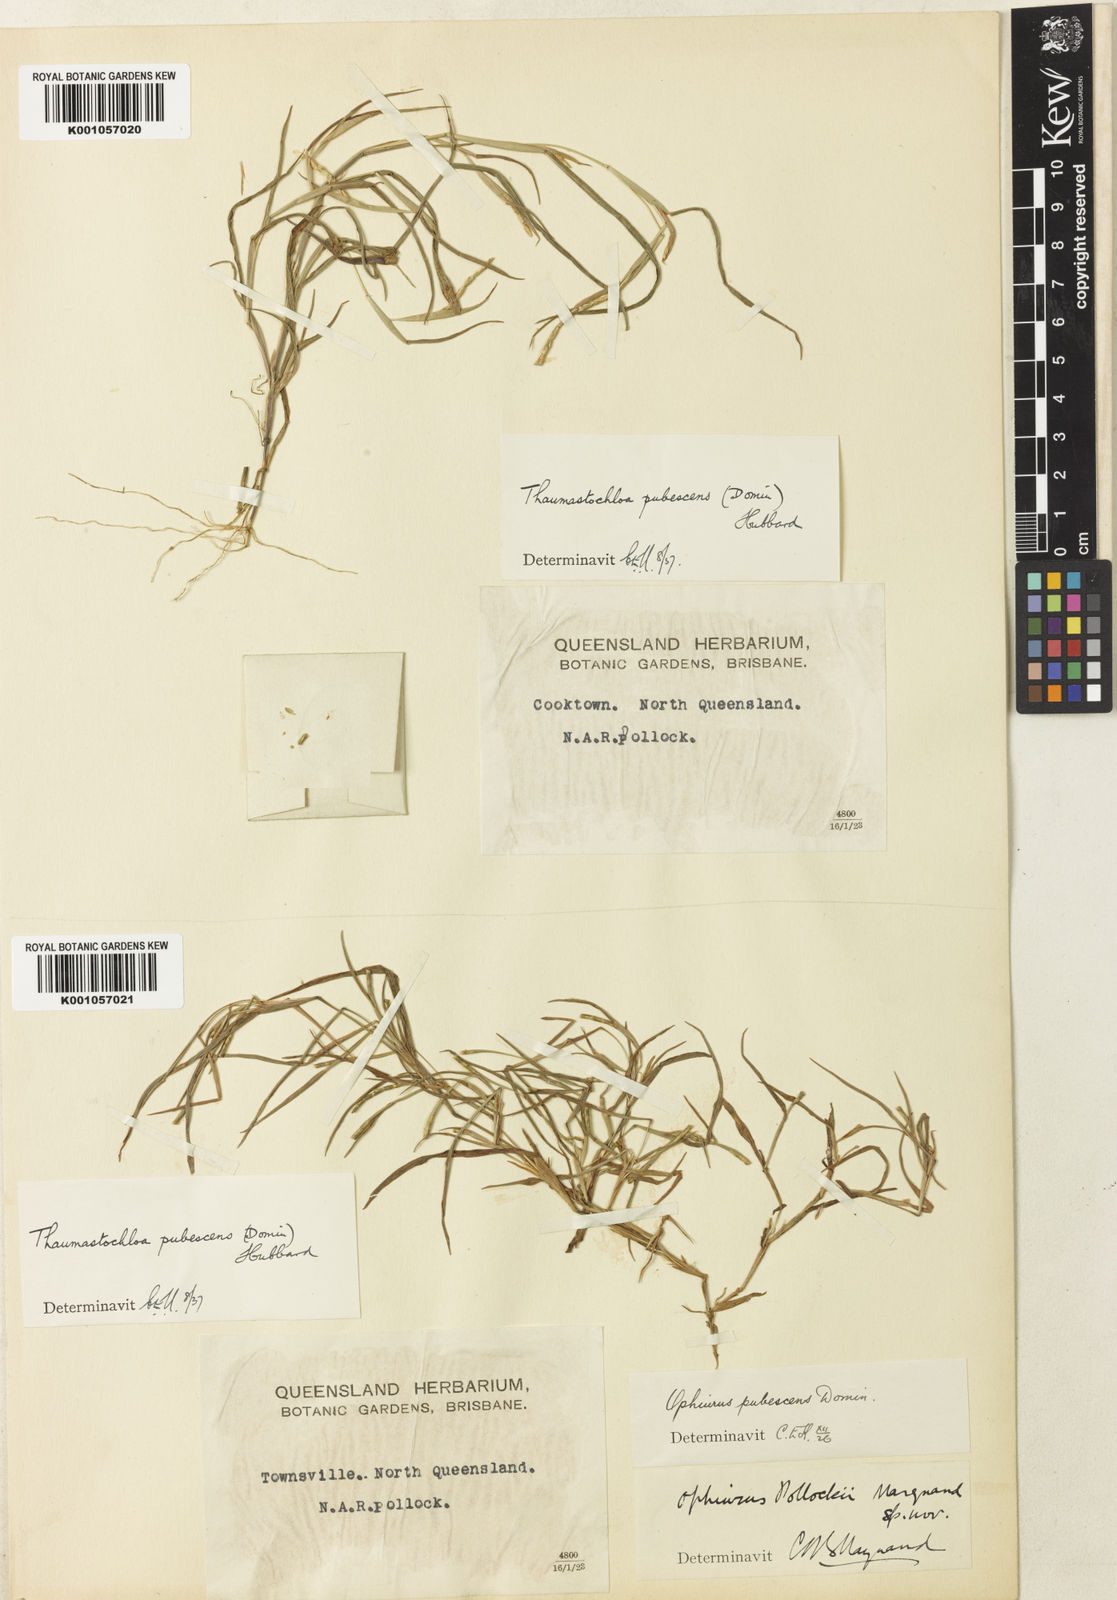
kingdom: Plantae
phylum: Tracheophyta
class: Liliopsida
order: Poales
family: Poaceae
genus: Thaumastochloa
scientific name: Thaumastochloa pubescens
